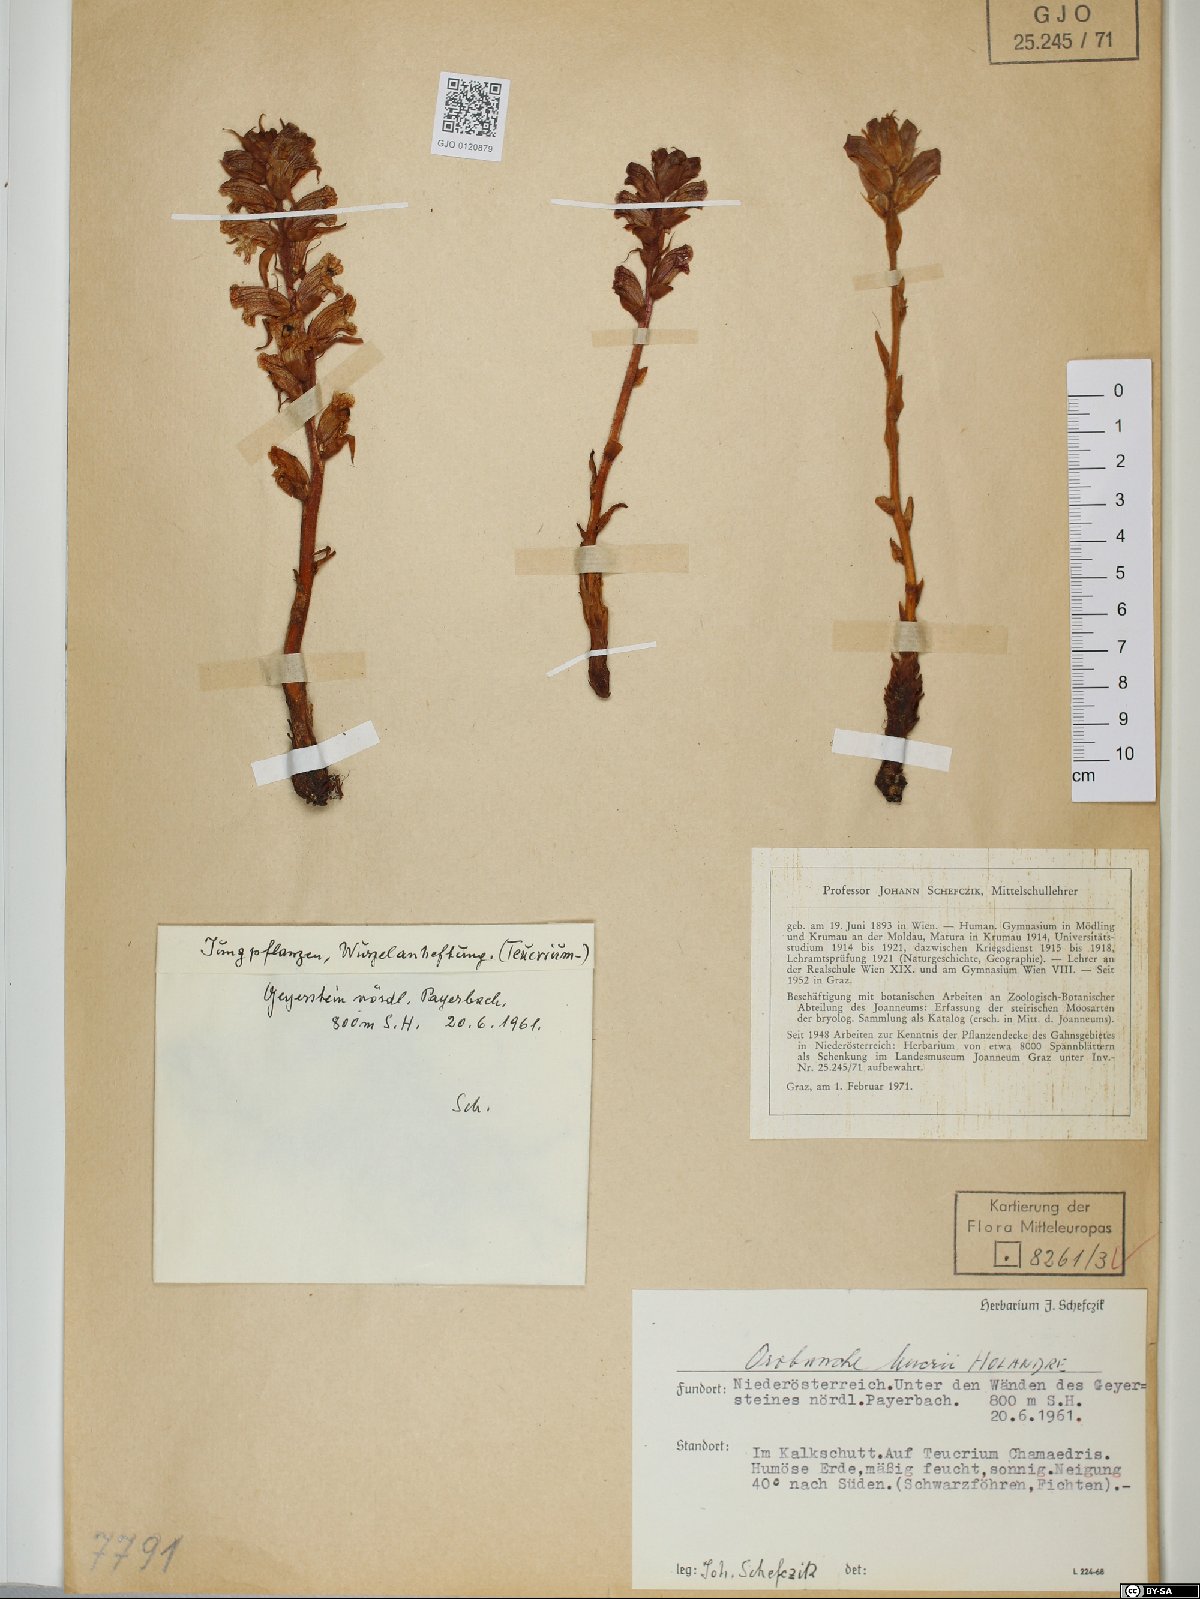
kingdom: Plantae
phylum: Tracheophyta
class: Magnoliopsida
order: Lamiales
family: Orobanchaceae
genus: Orobanche
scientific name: Orobanche teucrii
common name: Germander broomrape
